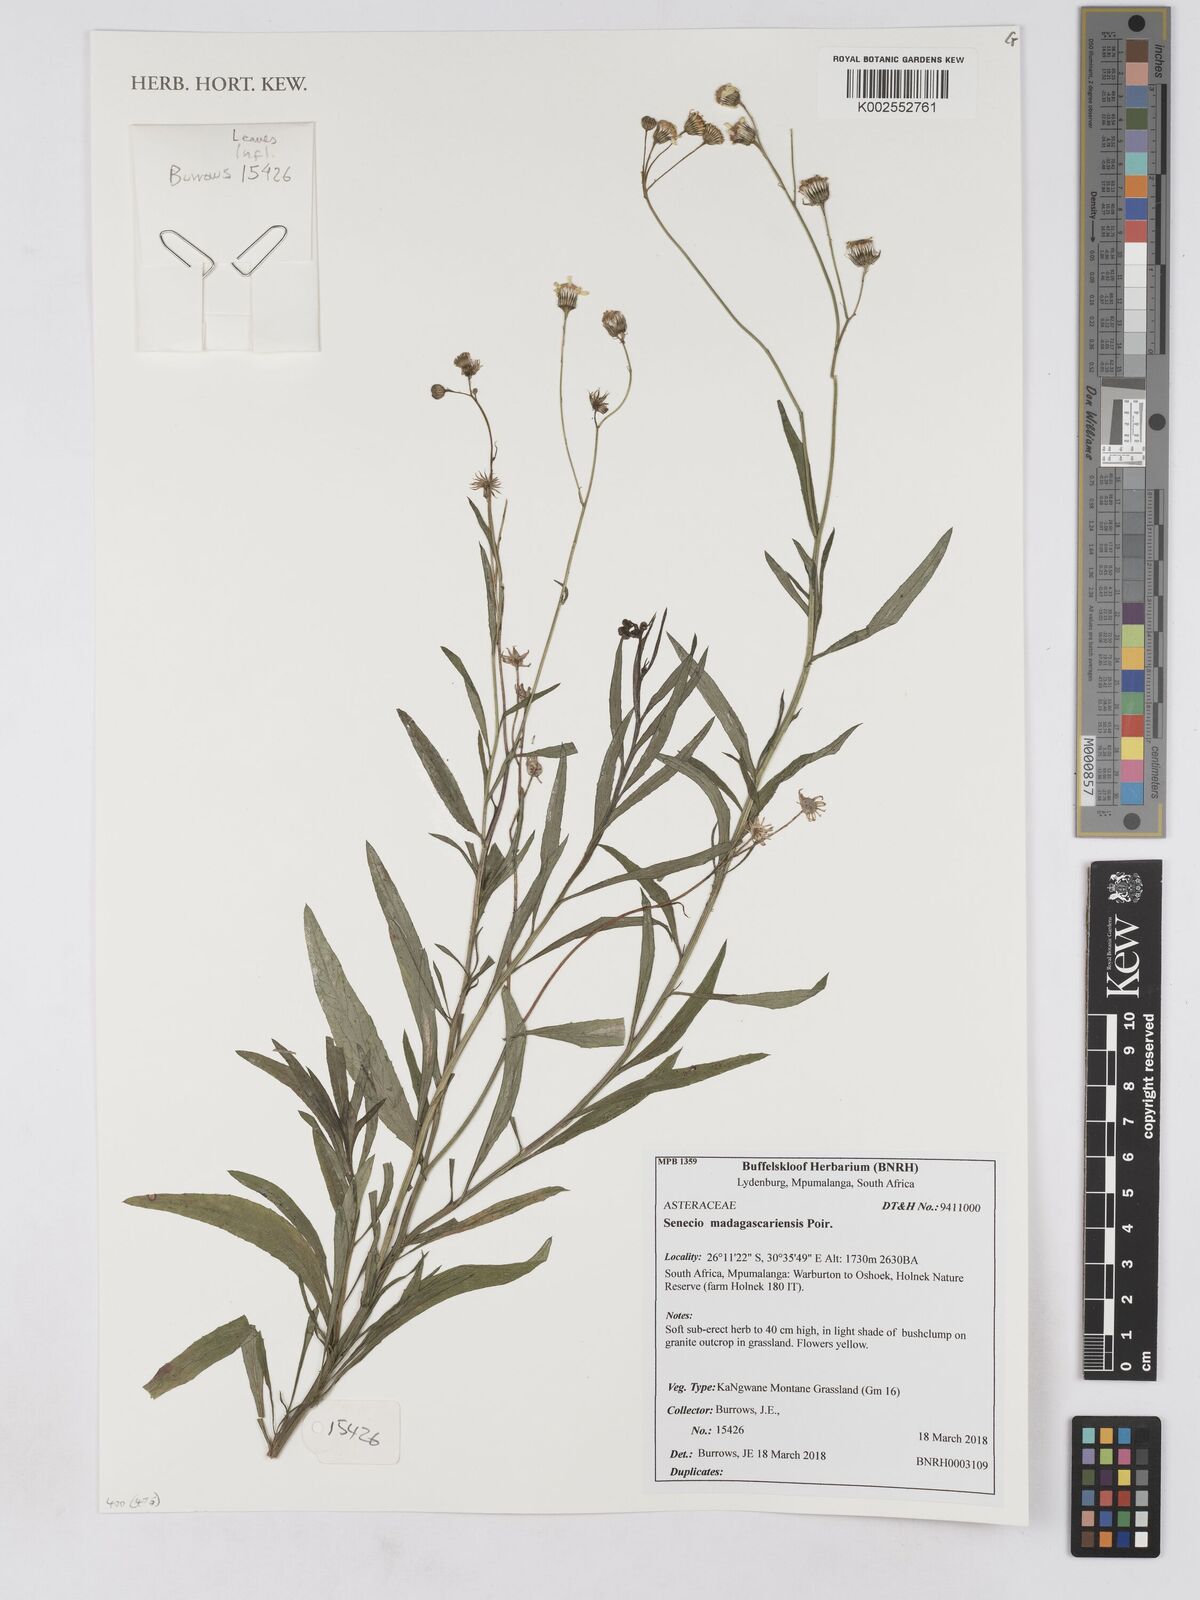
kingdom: Plantae
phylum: Tracheophyta
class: Magnoliopsida
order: Asterales
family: Asteraceae
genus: Senecio
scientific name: Senecio madagascariensis
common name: Madagascar ragwort
